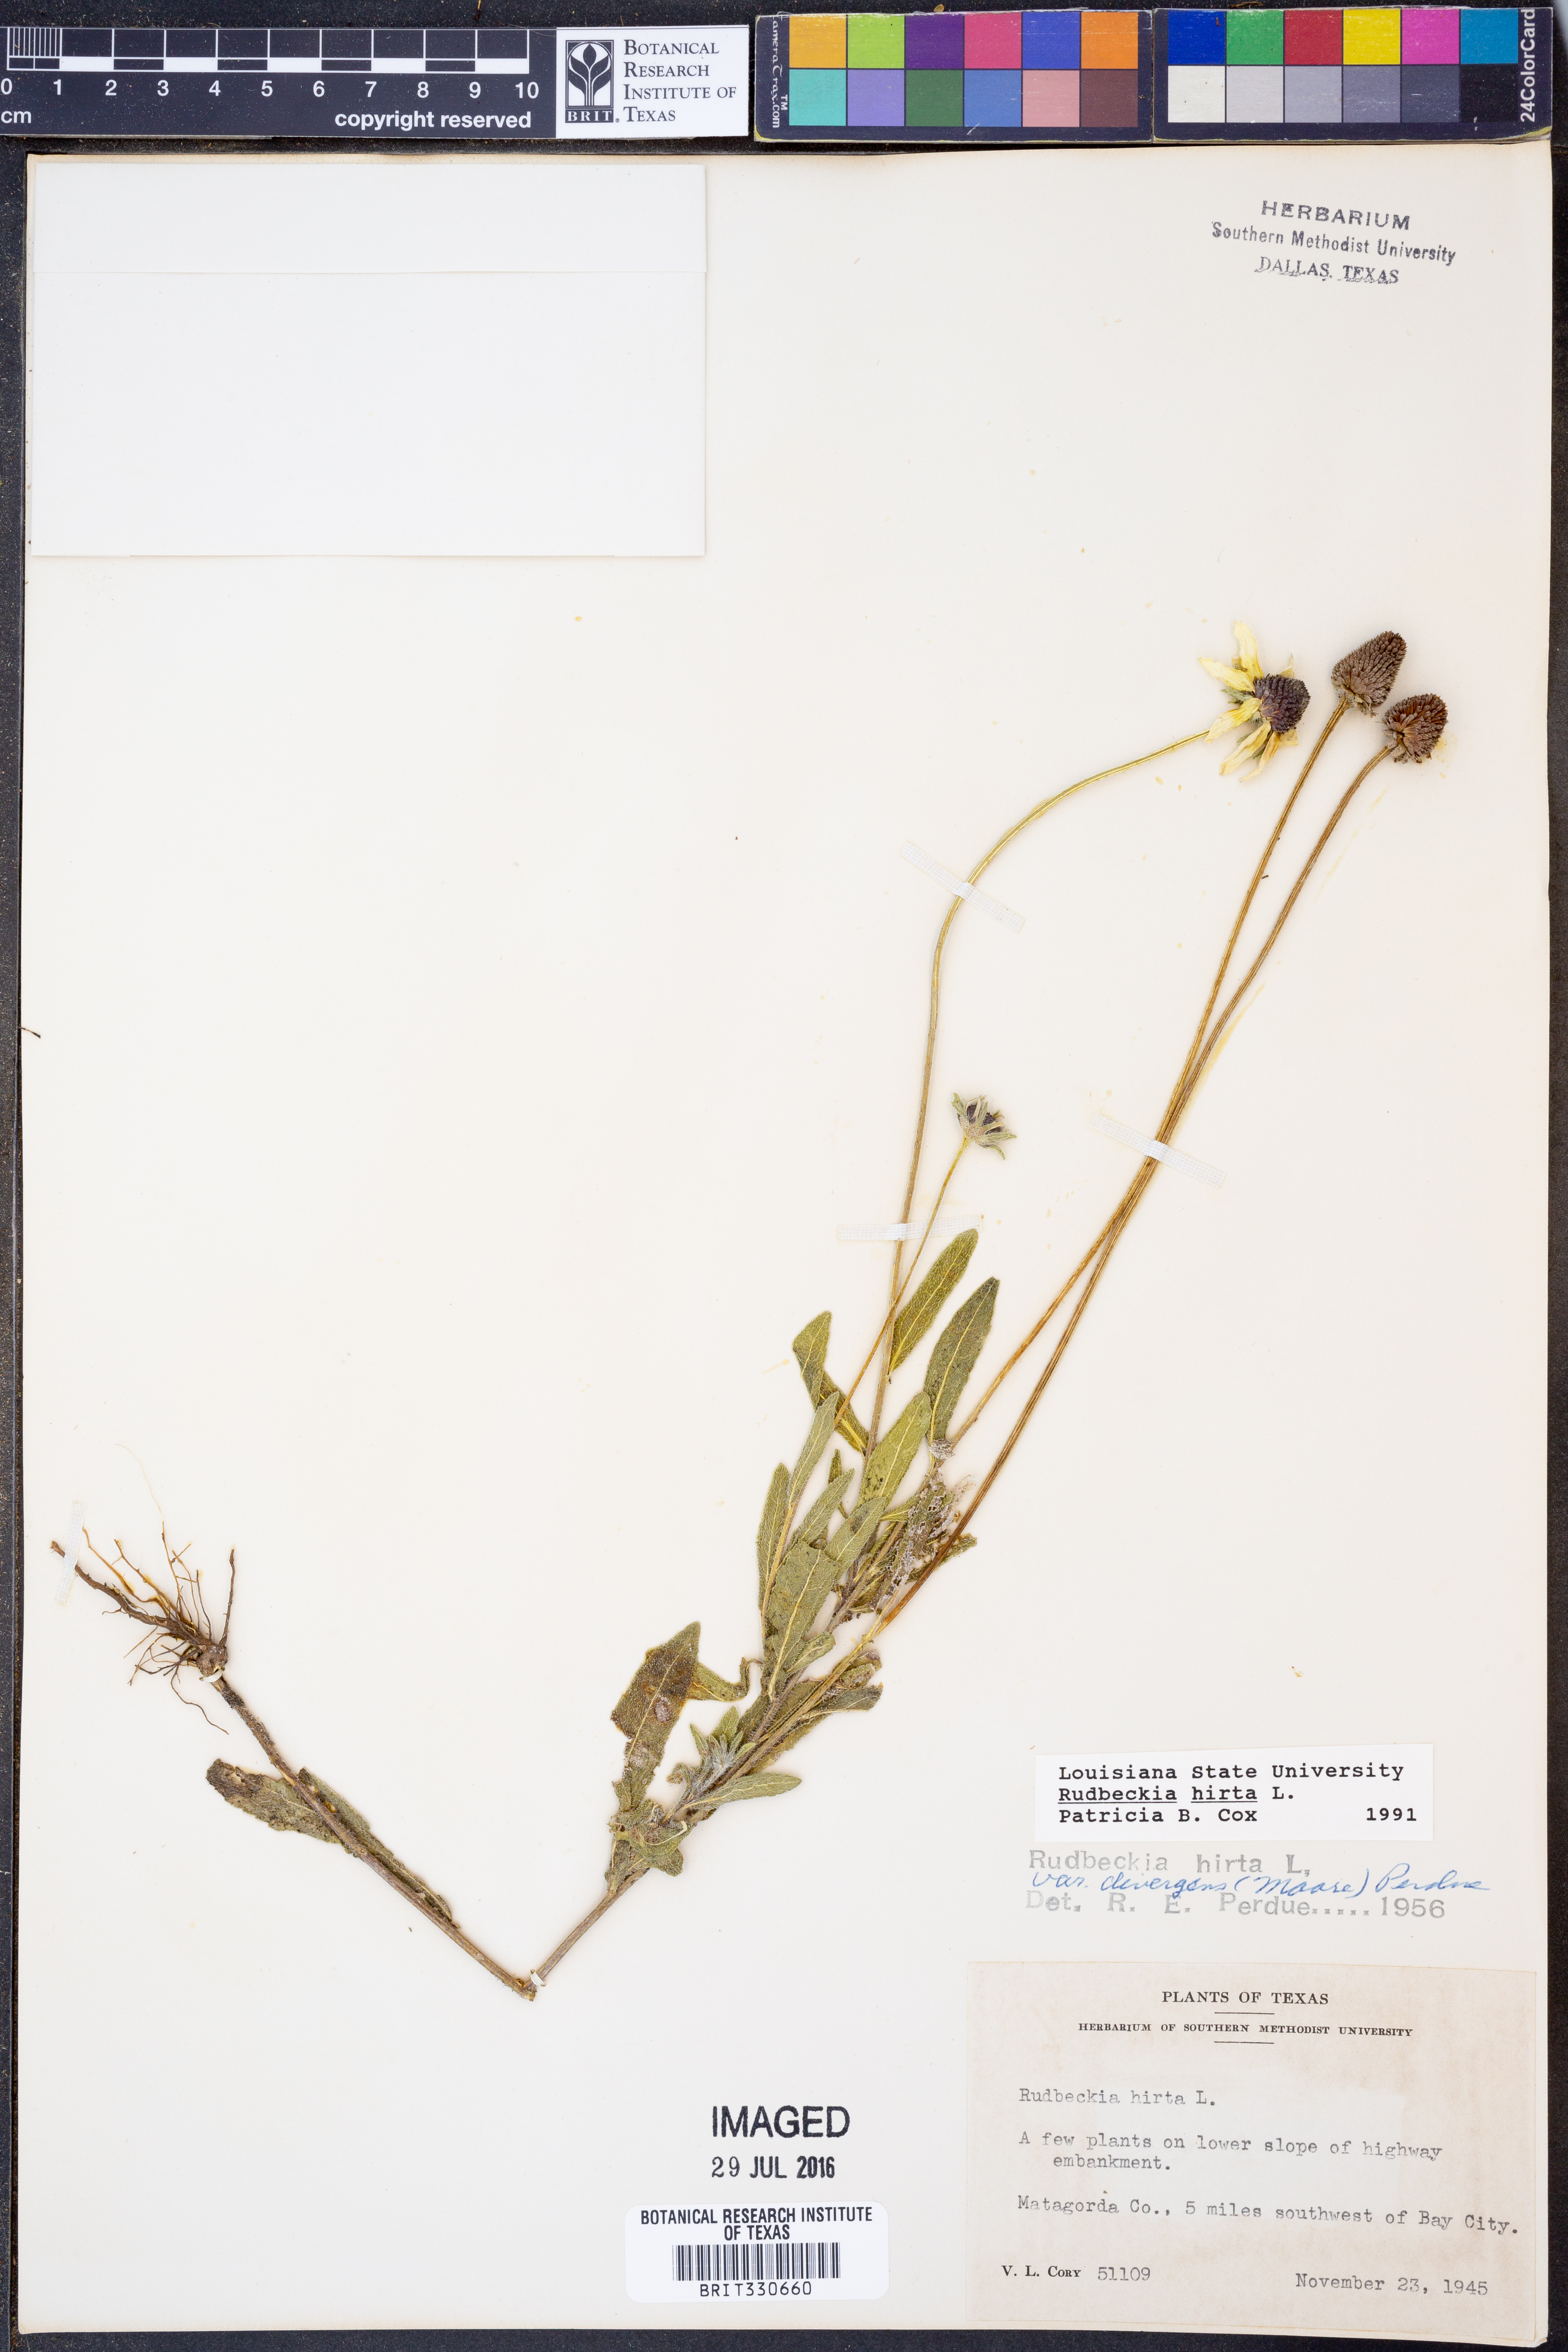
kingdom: Plantae
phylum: Tracheophyta
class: Magnoliopsida
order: Asterales
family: Asteraceae
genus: Rudbeckia
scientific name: Rudbeckia hirta
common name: Black-eyed-susan
